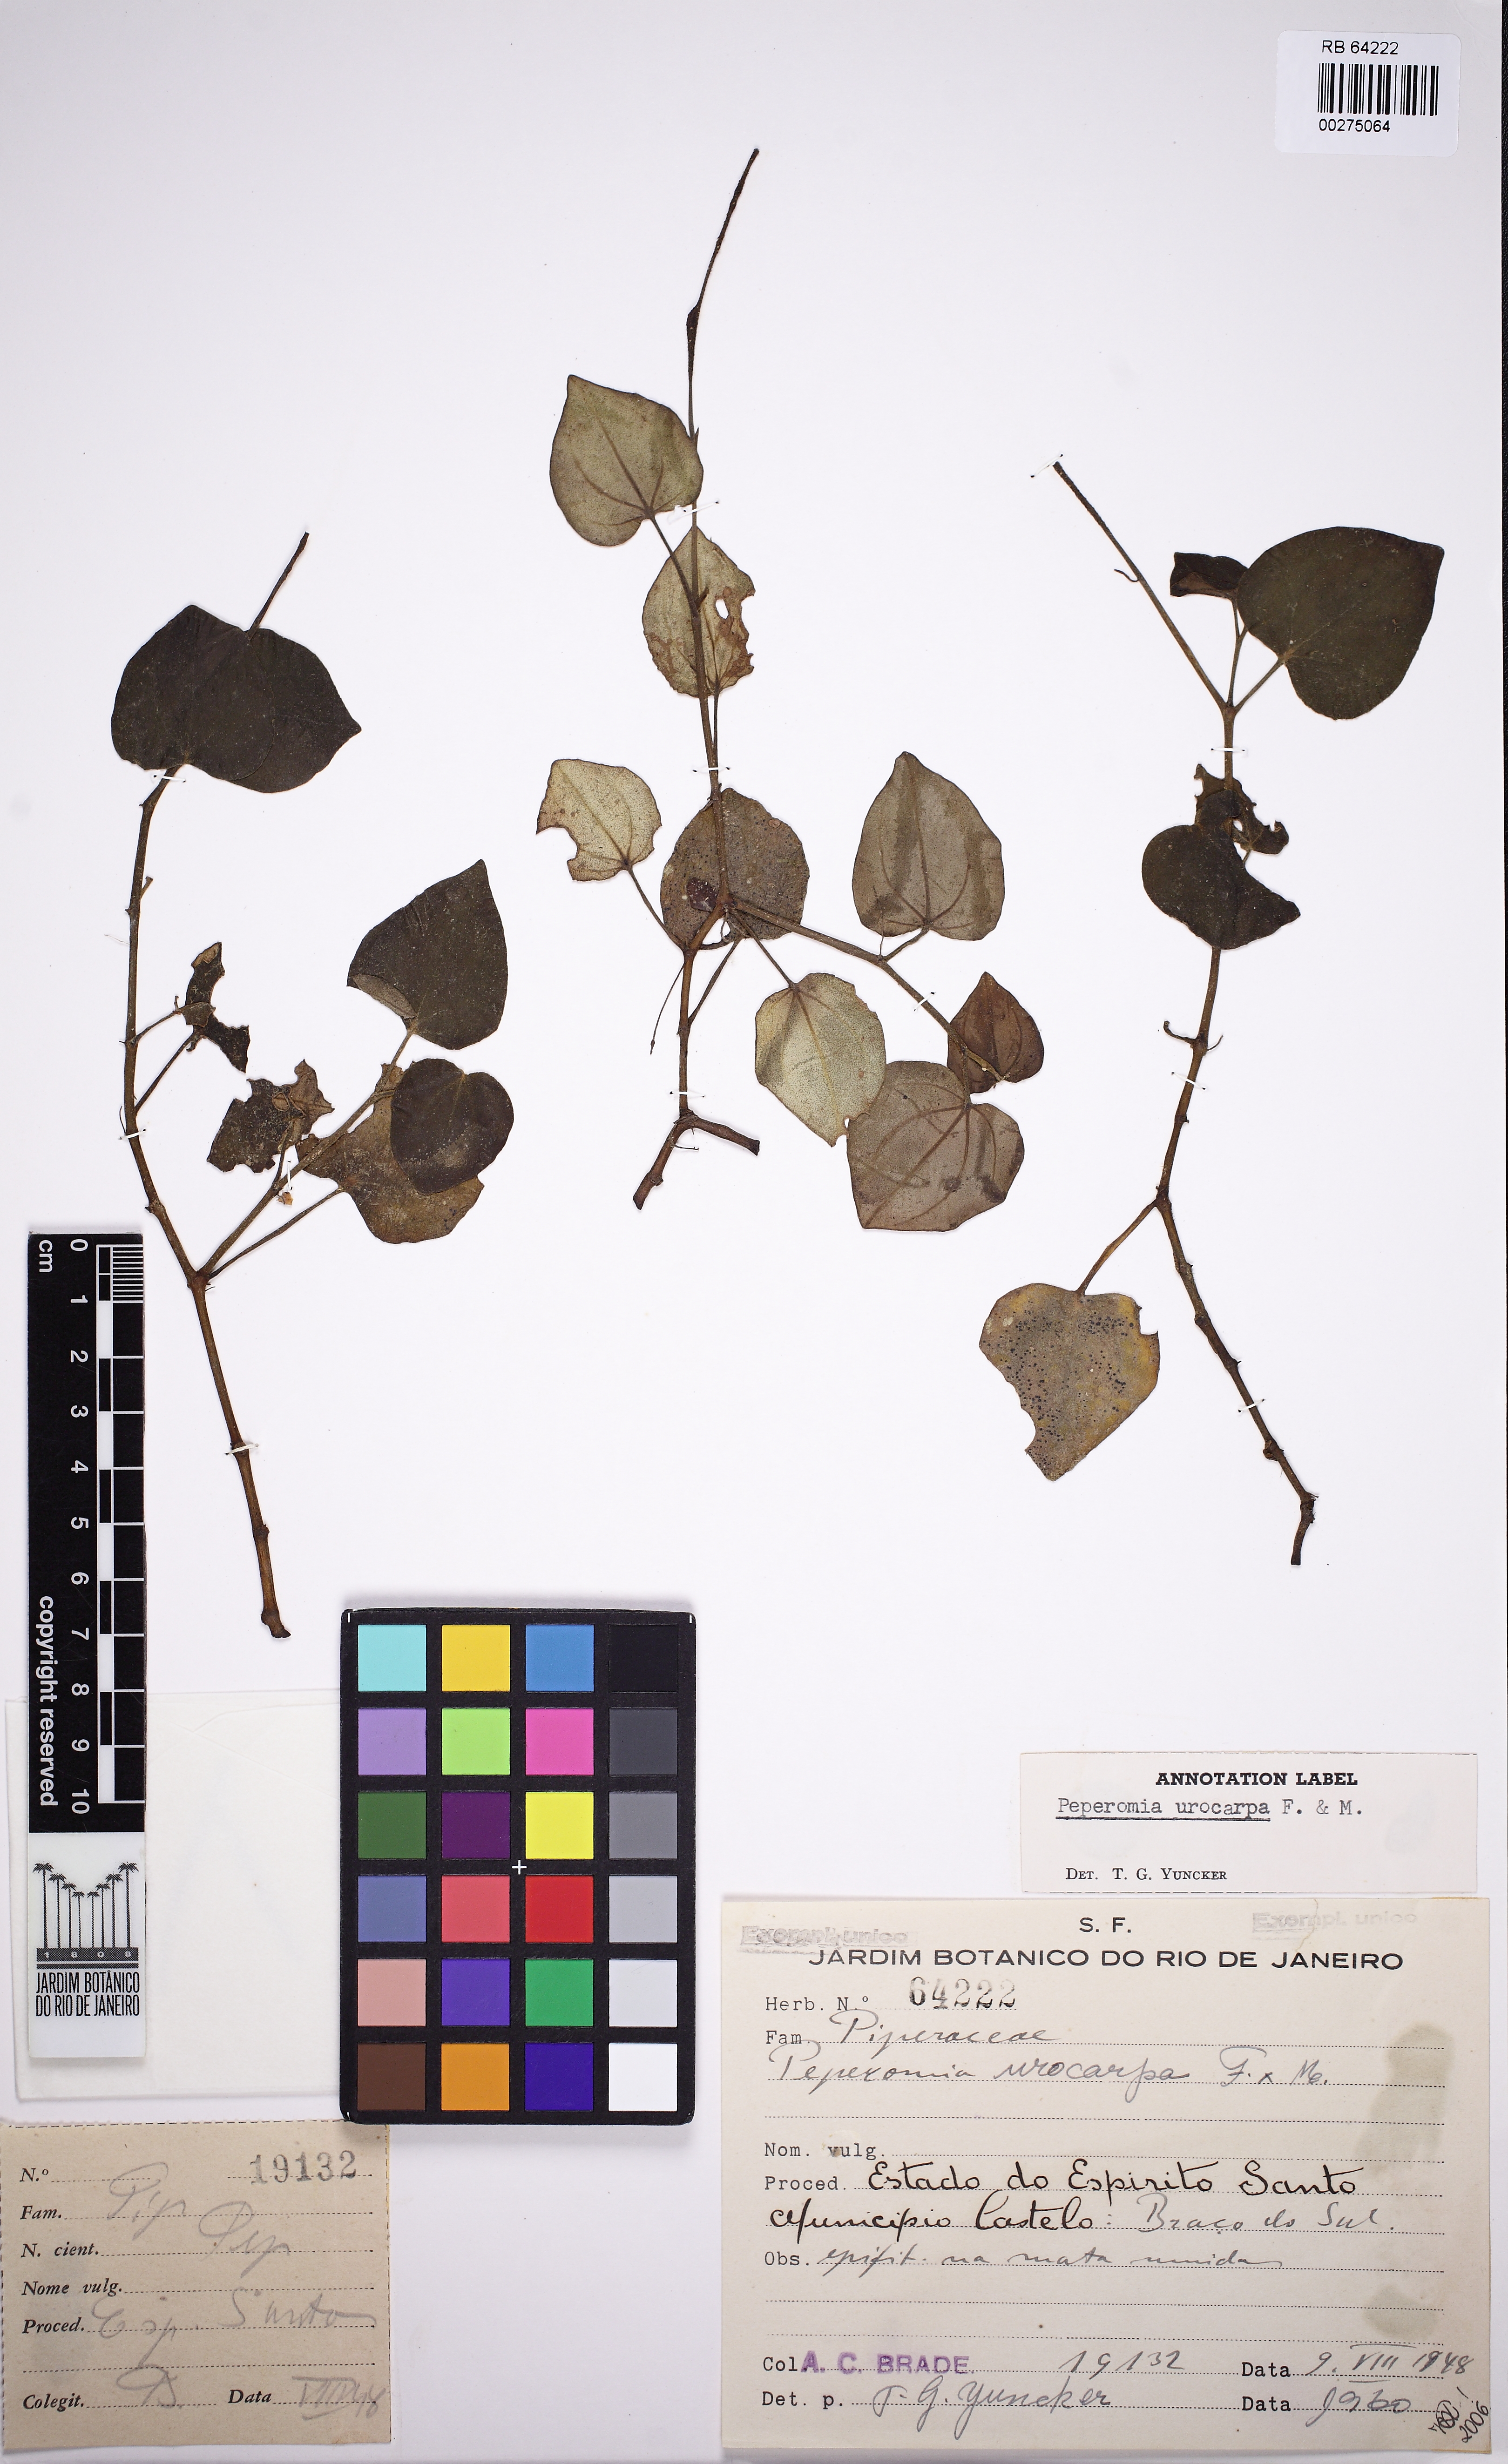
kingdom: Plantae
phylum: Tracheophyta
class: Magnoliopsida
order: Piperales
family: Piperaceae
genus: Peperomia
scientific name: Peperomia urocarpa
